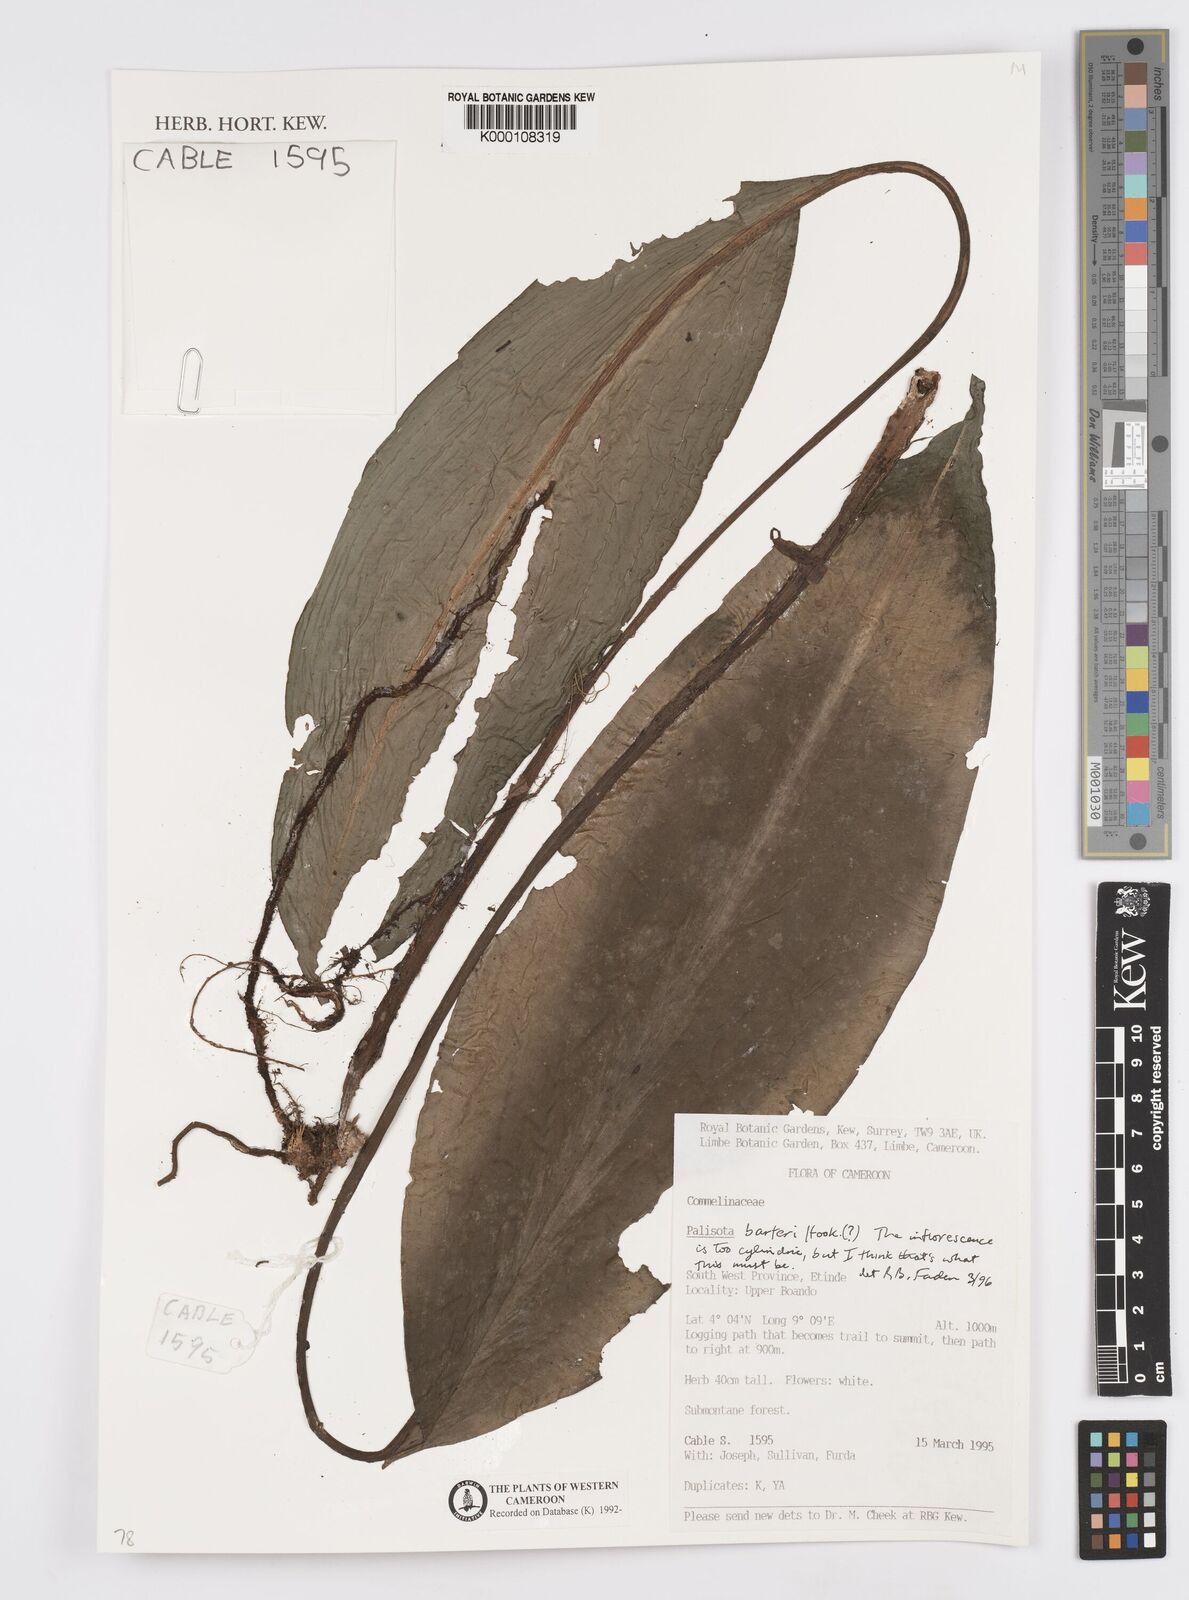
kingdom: Plantae
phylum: Tracheophyta
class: Liliopsida
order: Commelinales
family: Commelinaceae
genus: Palisota
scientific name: Palisota barteri
